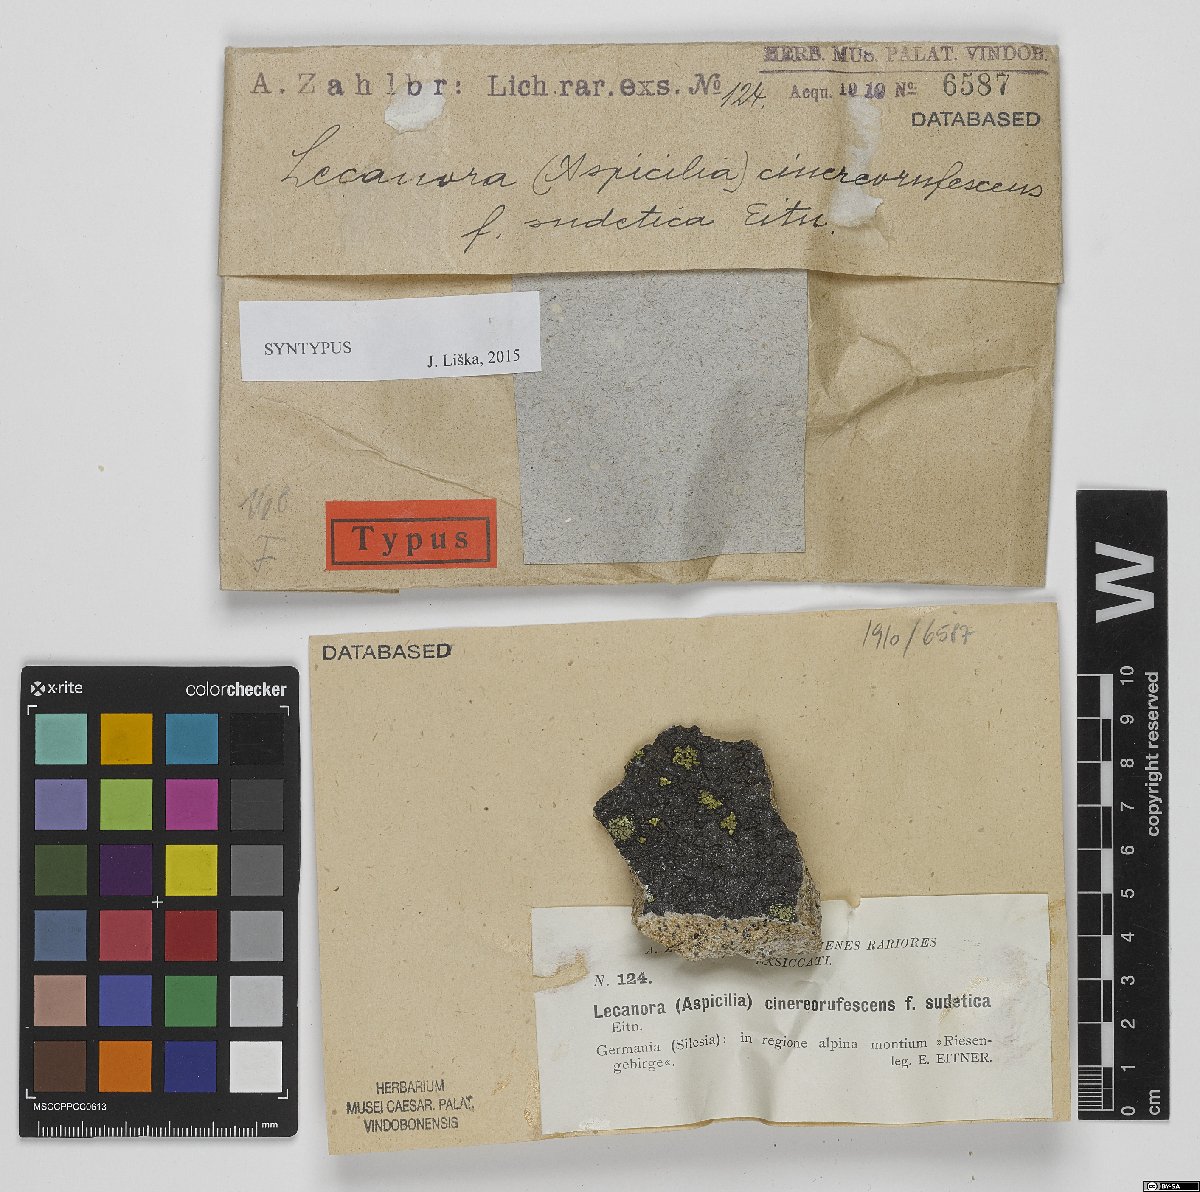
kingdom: Fungi
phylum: Ascomycota
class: Lecanoromycetes
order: Lecideales
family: Lecideaceae
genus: Bellemerea
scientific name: Bellemerea cinereorufescens
